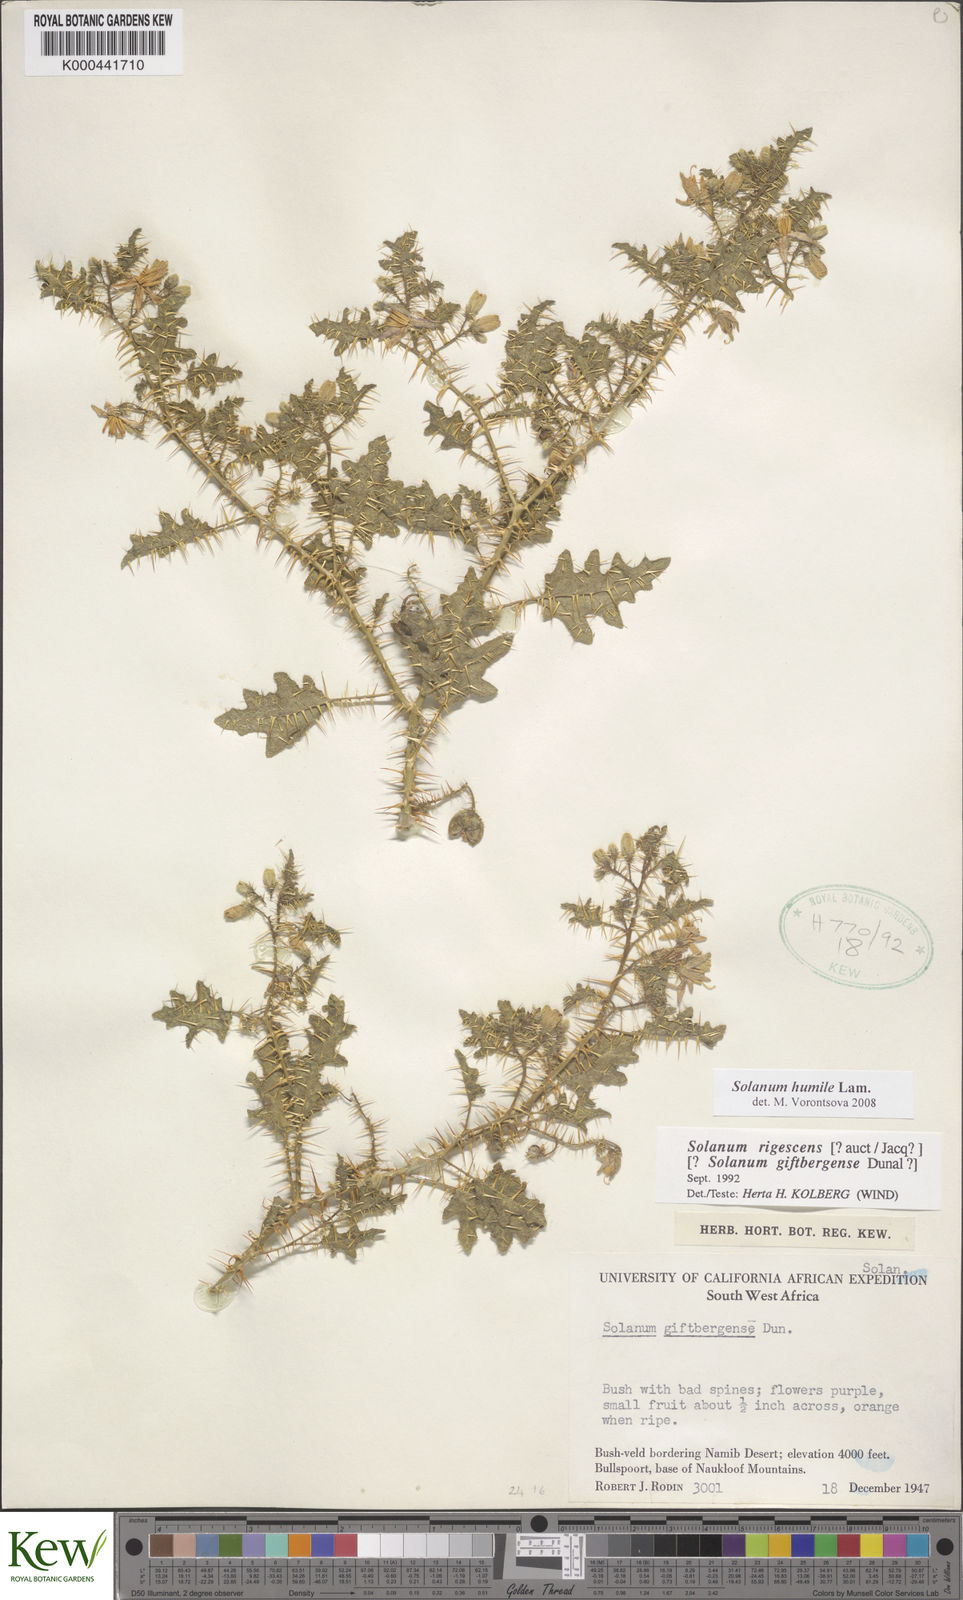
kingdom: Plantae
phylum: Tracheophyta
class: Magnoliopsida
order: Solanales
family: Solanaceae
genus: Solanum
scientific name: Solanum humile
